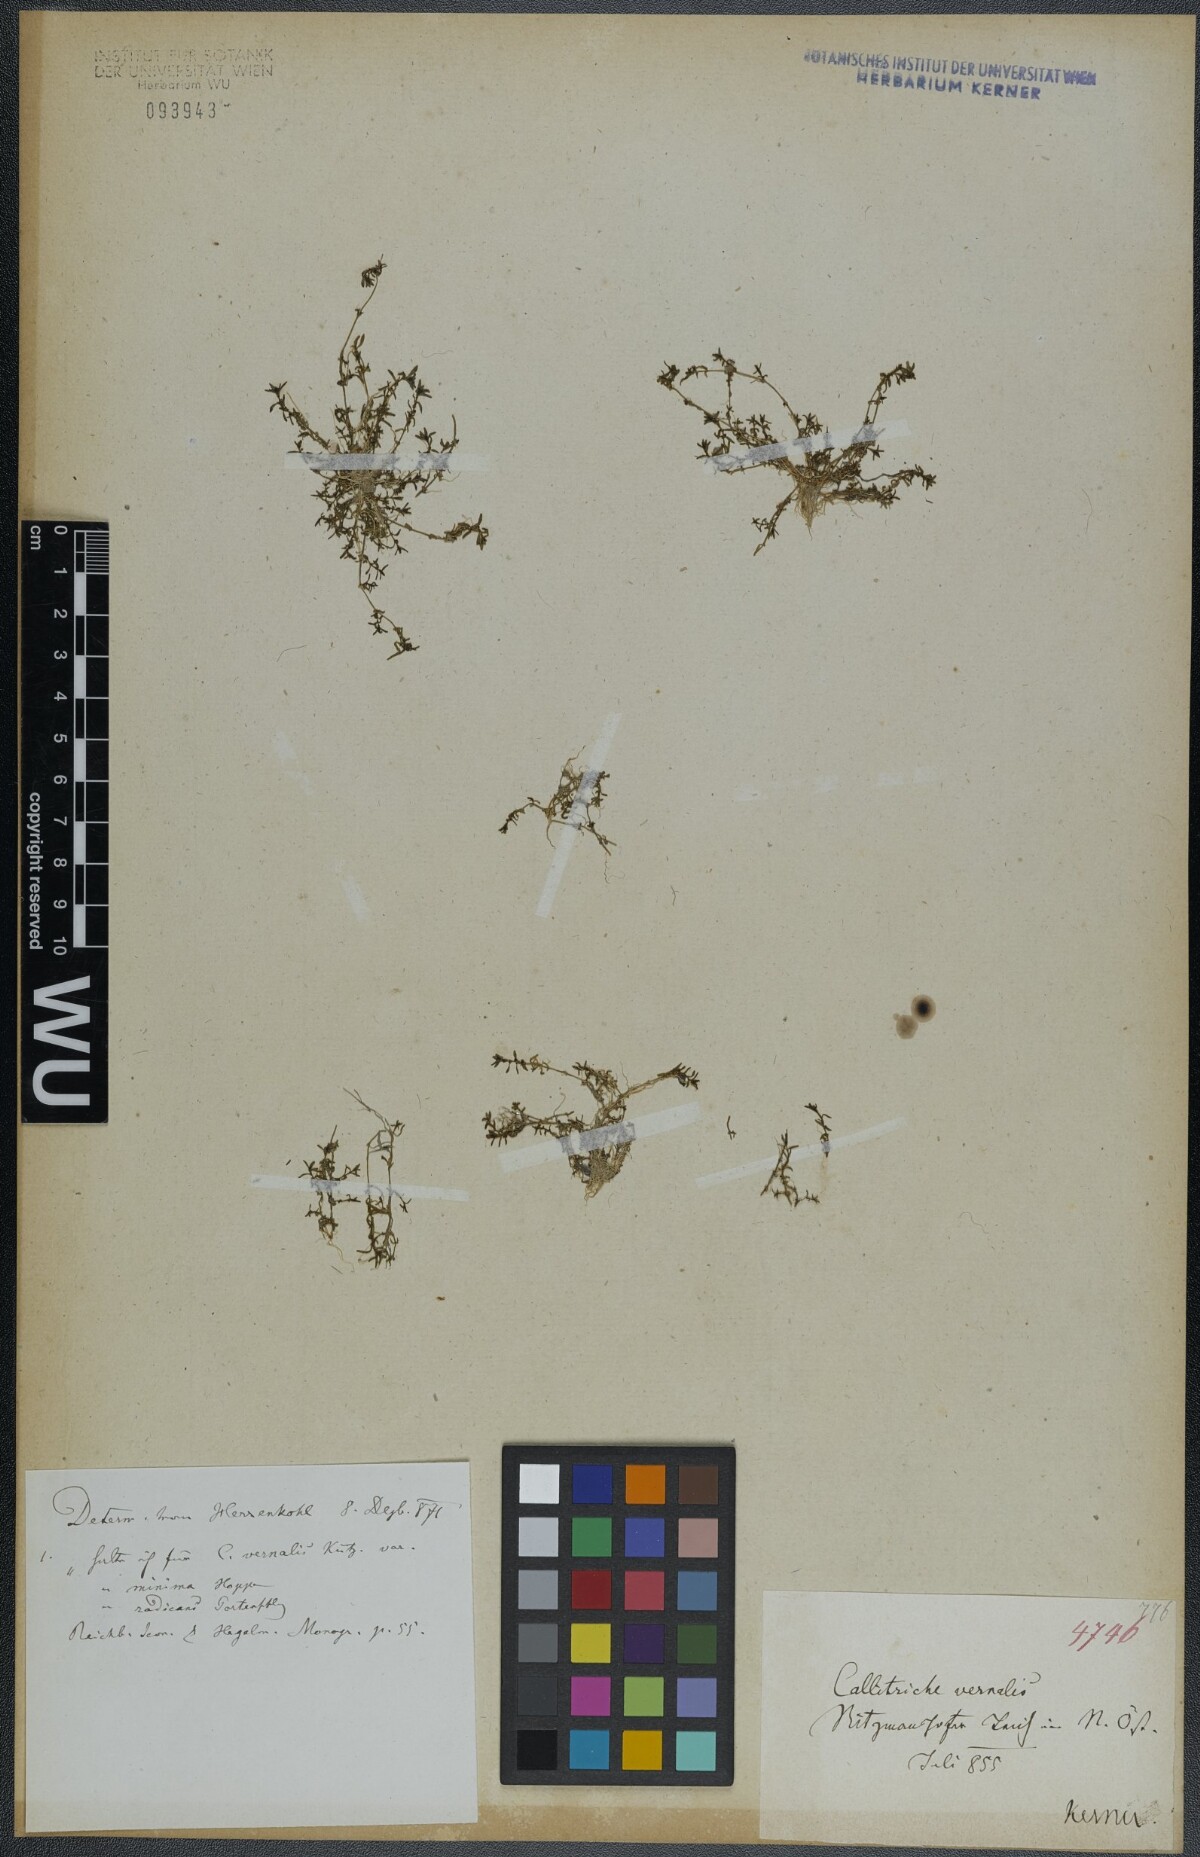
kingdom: Plantae
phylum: Tracheophyta
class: Magnoliopsida
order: Lamiales
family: Plantaginaceae
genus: Callitriche
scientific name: Callitriche palustris
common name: Spring water-starwort
